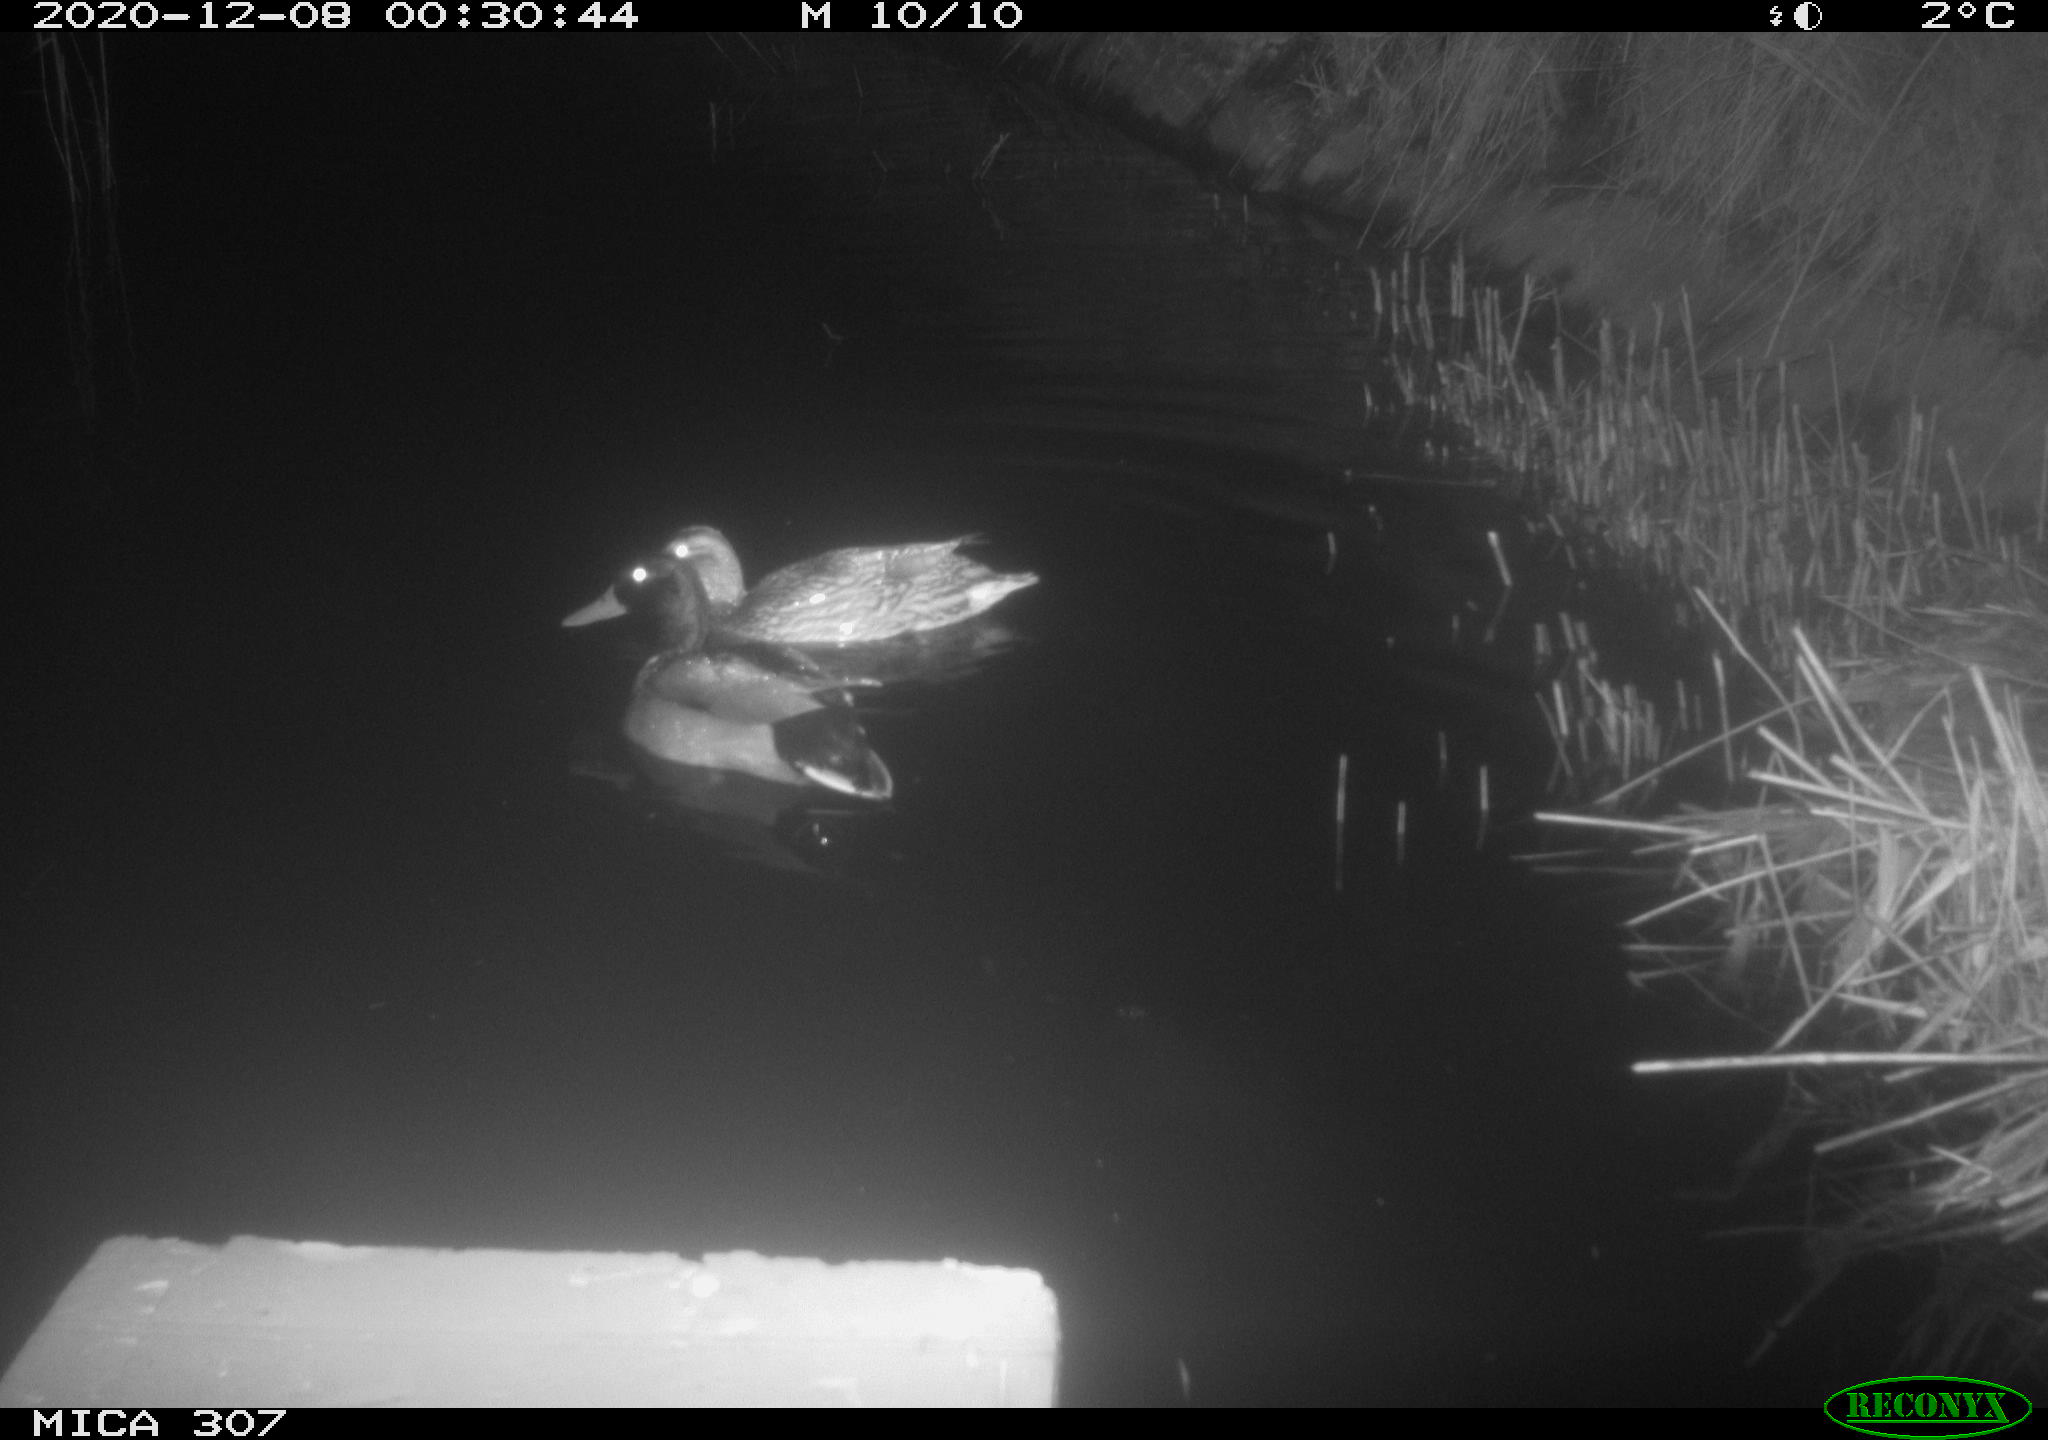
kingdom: Animalia
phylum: Chordata
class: Aves
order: Anseriformes
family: Anatidae
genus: Anas
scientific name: Anas platyrhynchos
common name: Mallard
